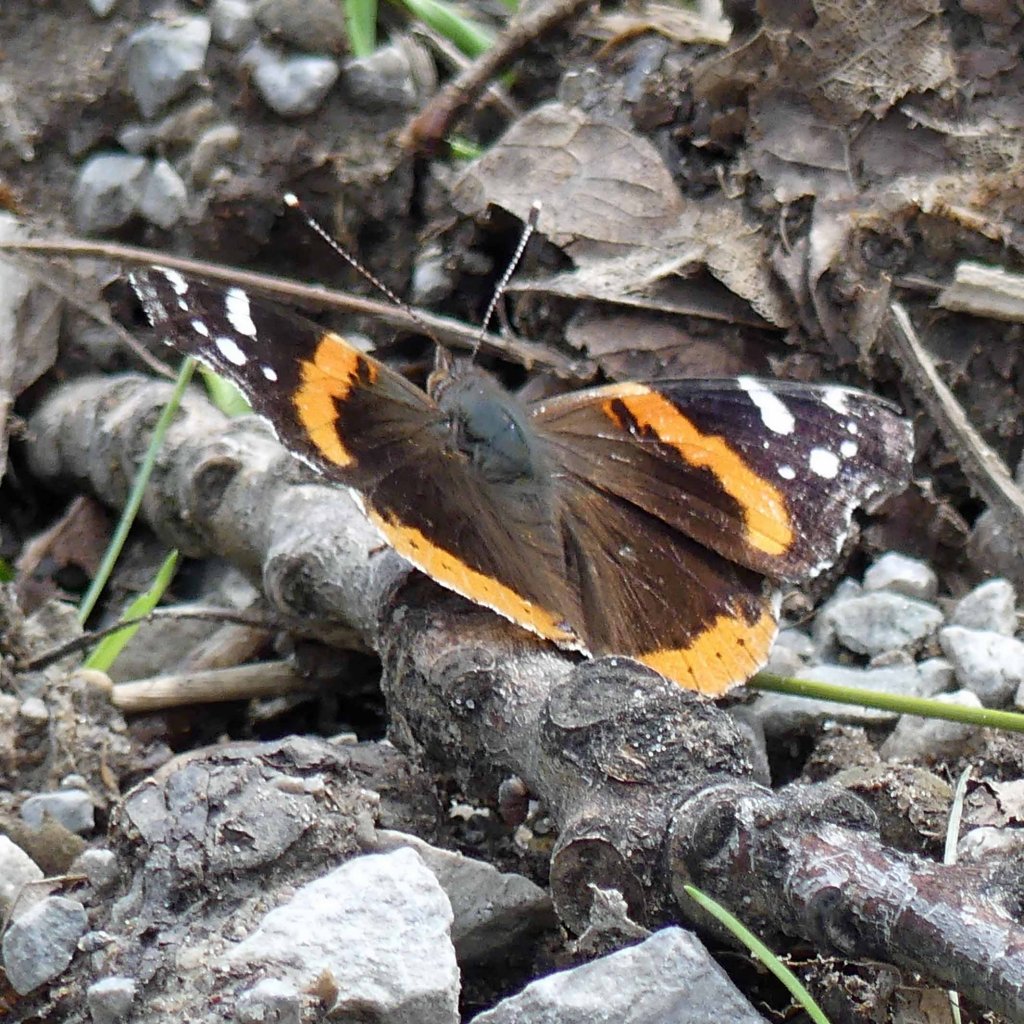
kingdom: Animalia
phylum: Arthropoda
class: Insecta
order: Lepidoptera
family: Nymphalidae
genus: Vanessa
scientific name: Vanessa atalanta
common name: Red Admiral
